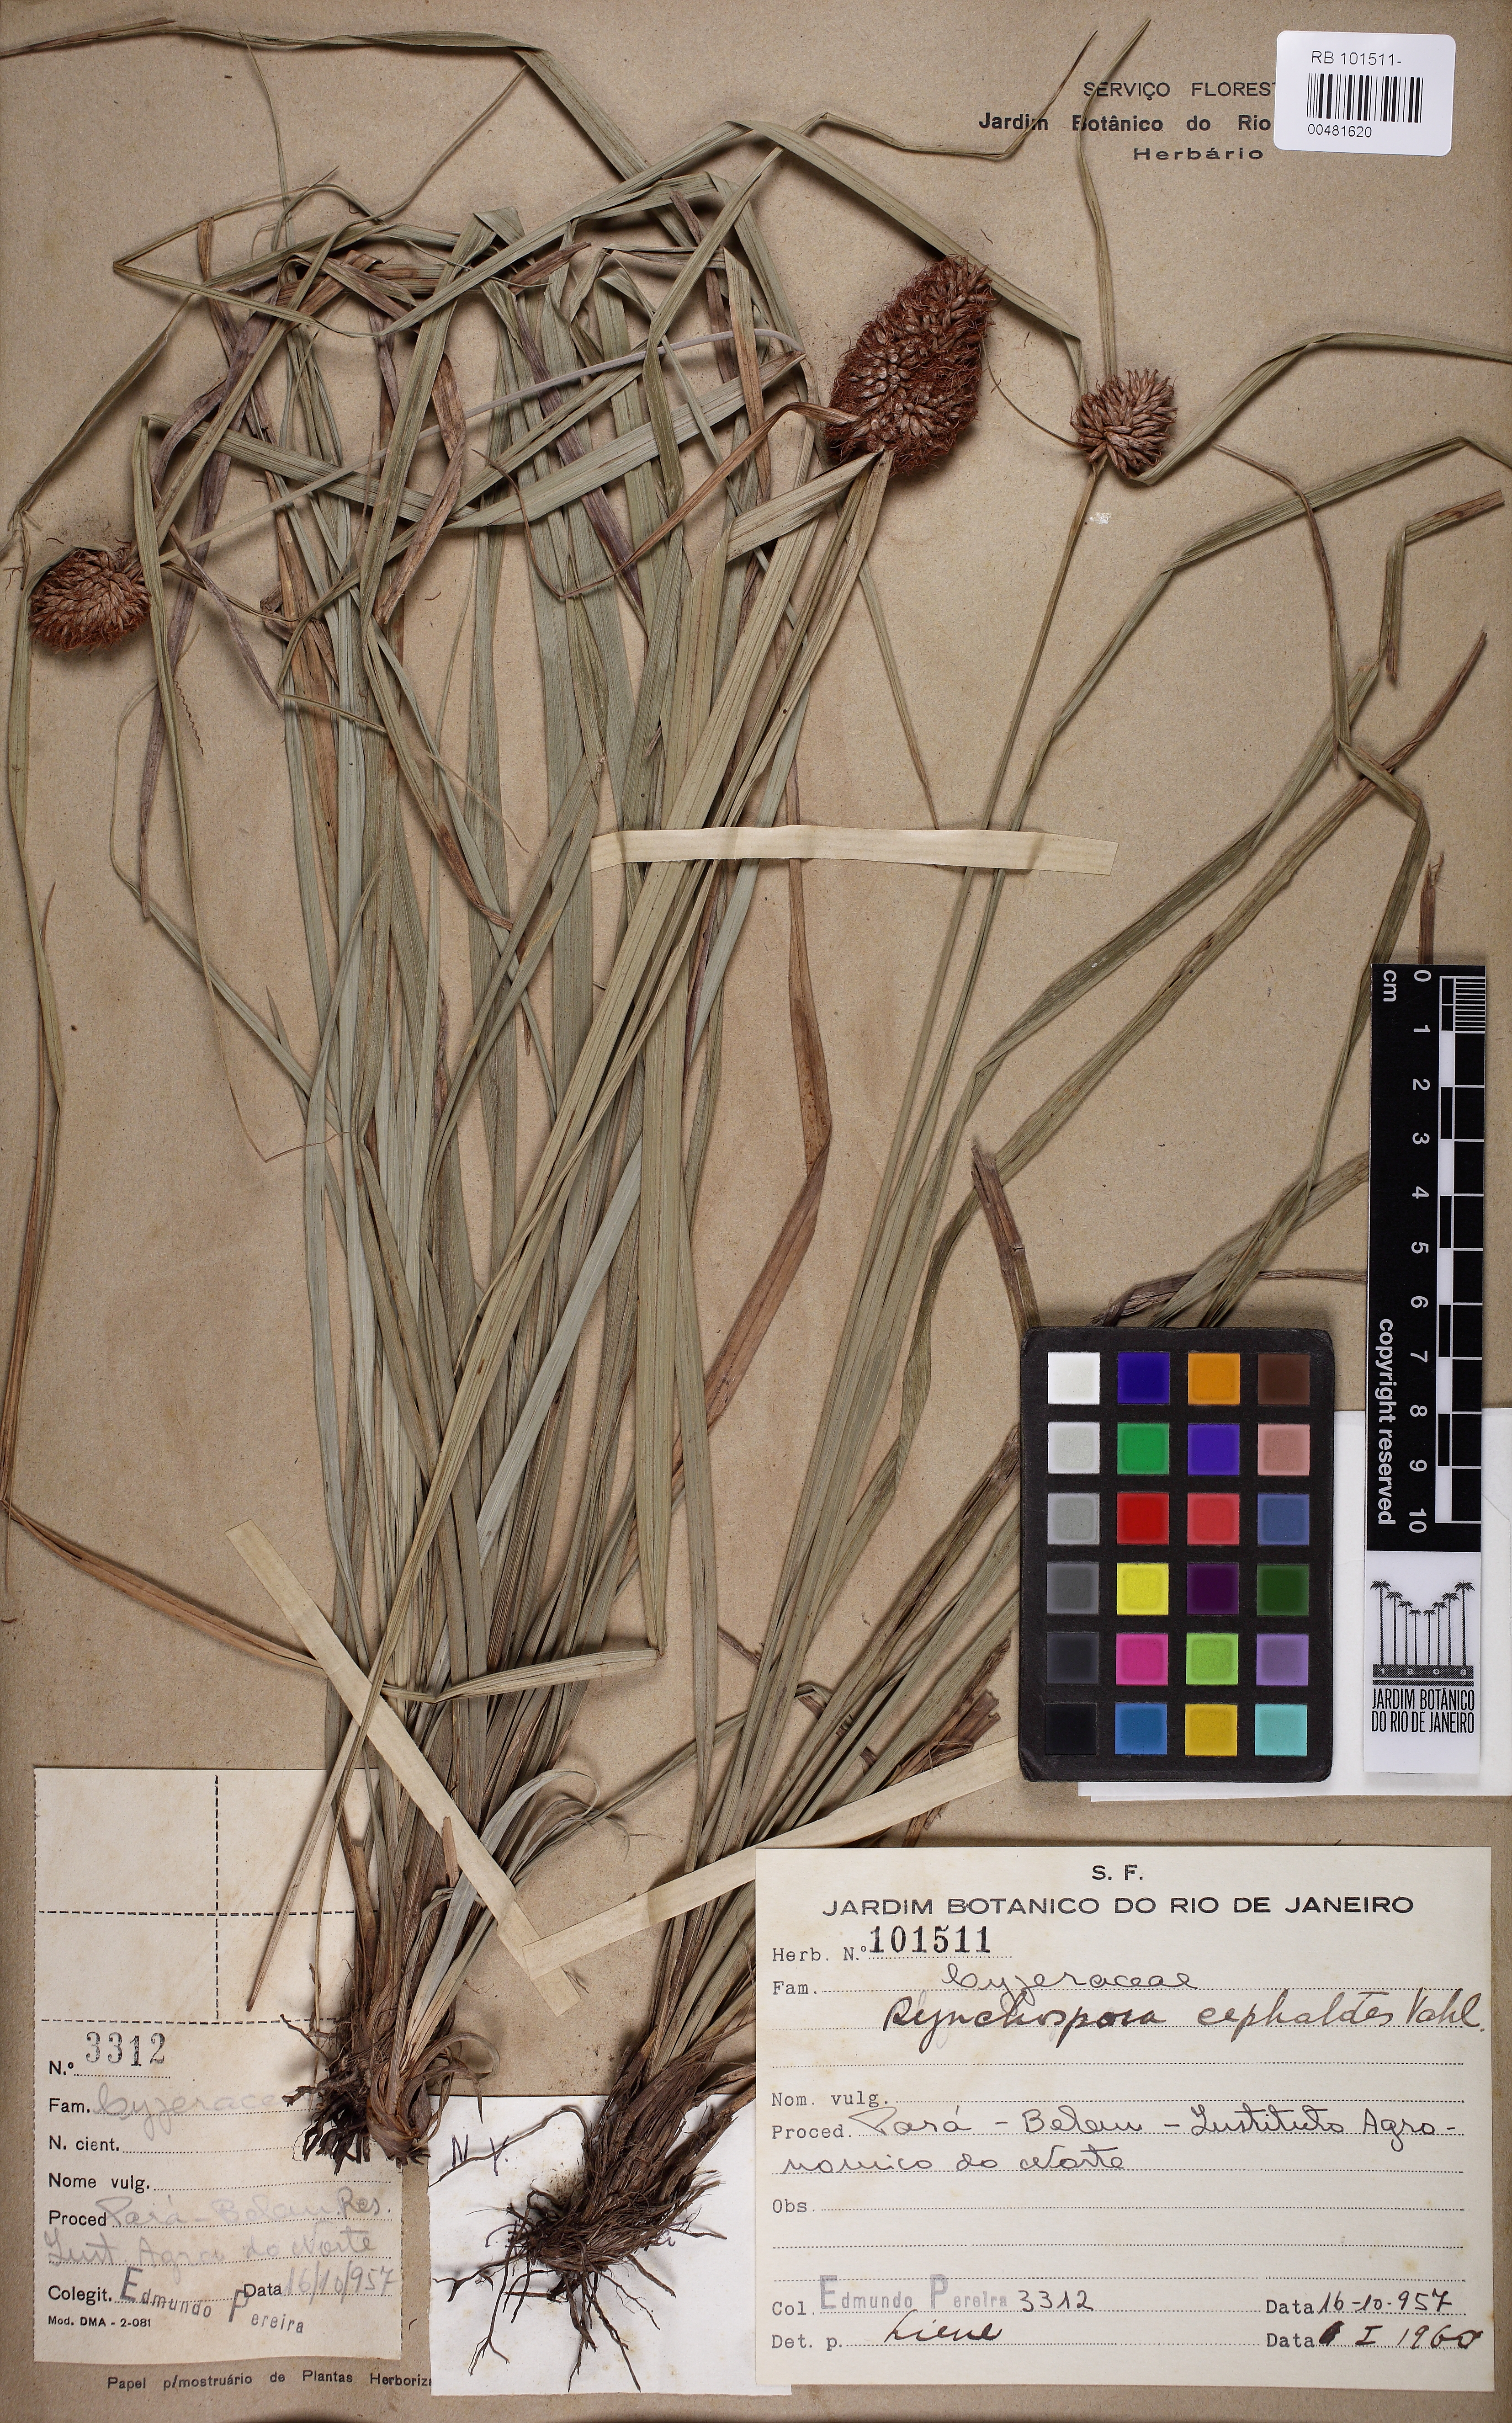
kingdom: Plantae
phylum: Tracheophyta
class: Liliopsida
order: Poales
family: Cyperaceae
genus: Rhynchospora
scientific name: Rhynchospora cephalotes
